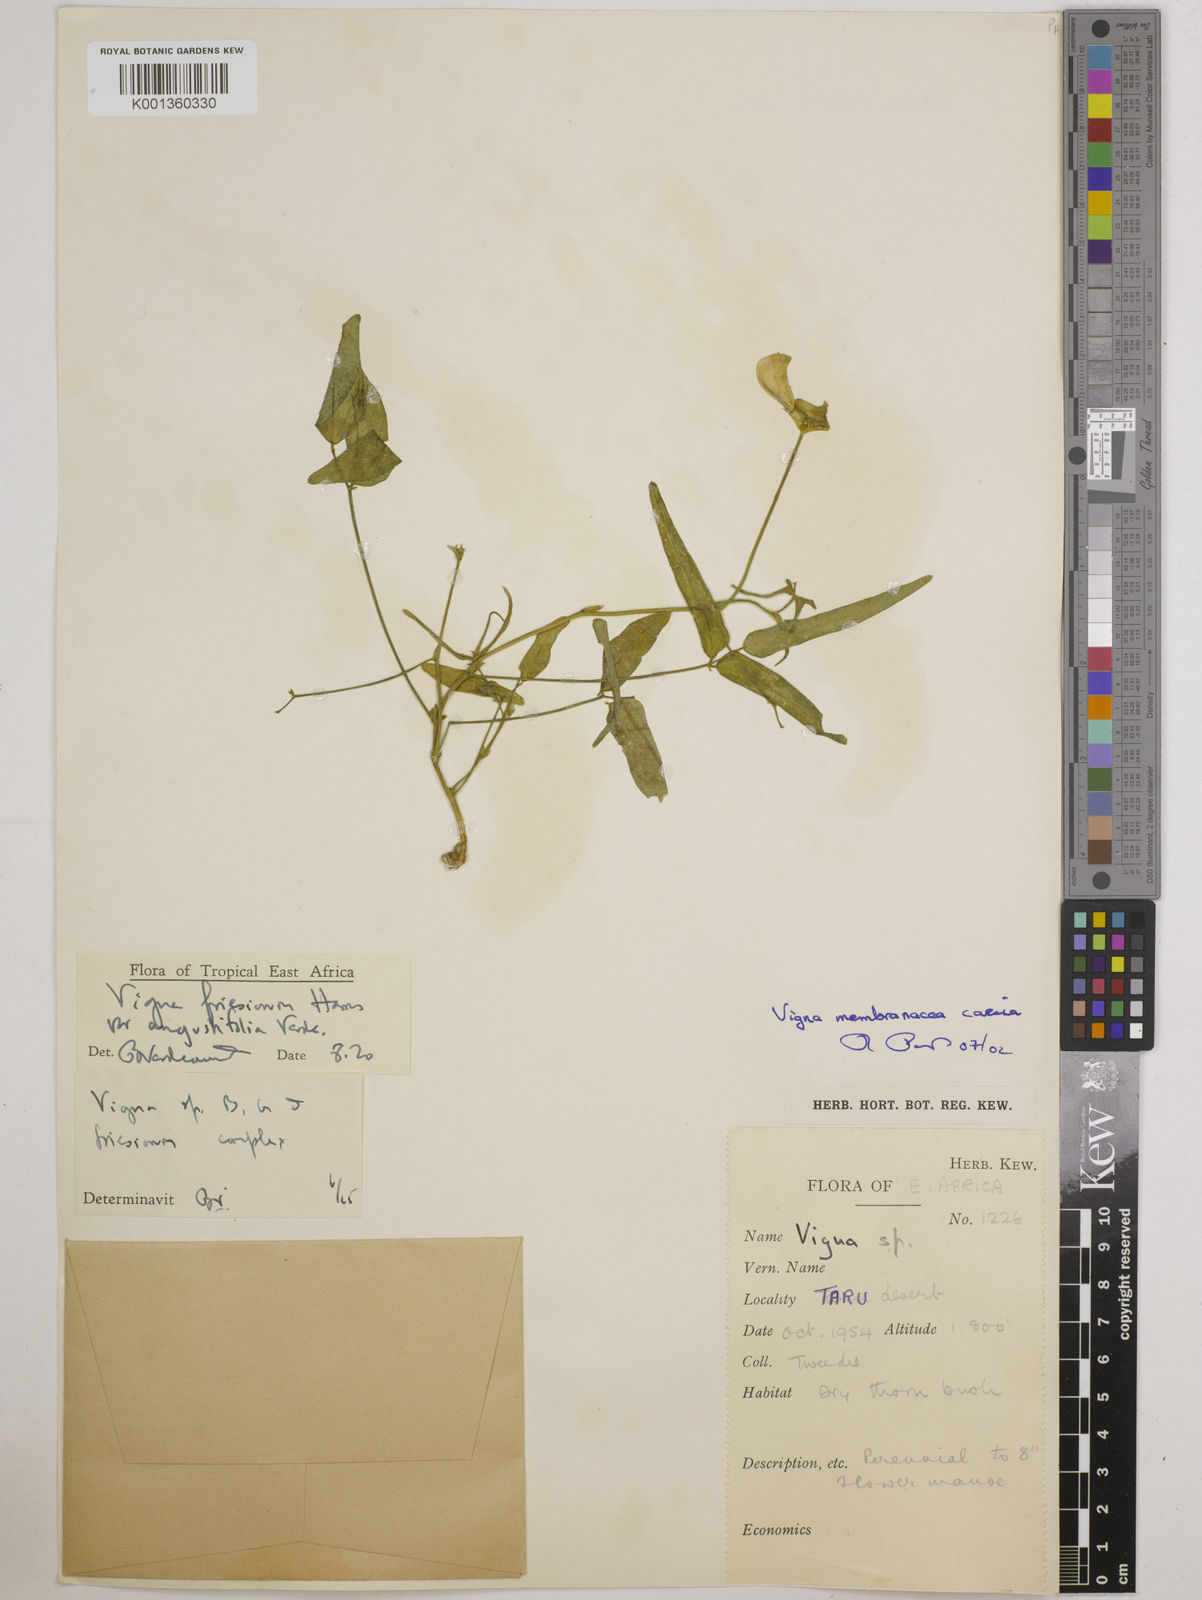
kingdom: Plantae
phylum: Tracheophyta
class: Magnoliopsida
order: Fabales
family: Fabaceae
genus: Vigna
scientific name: Vigna
